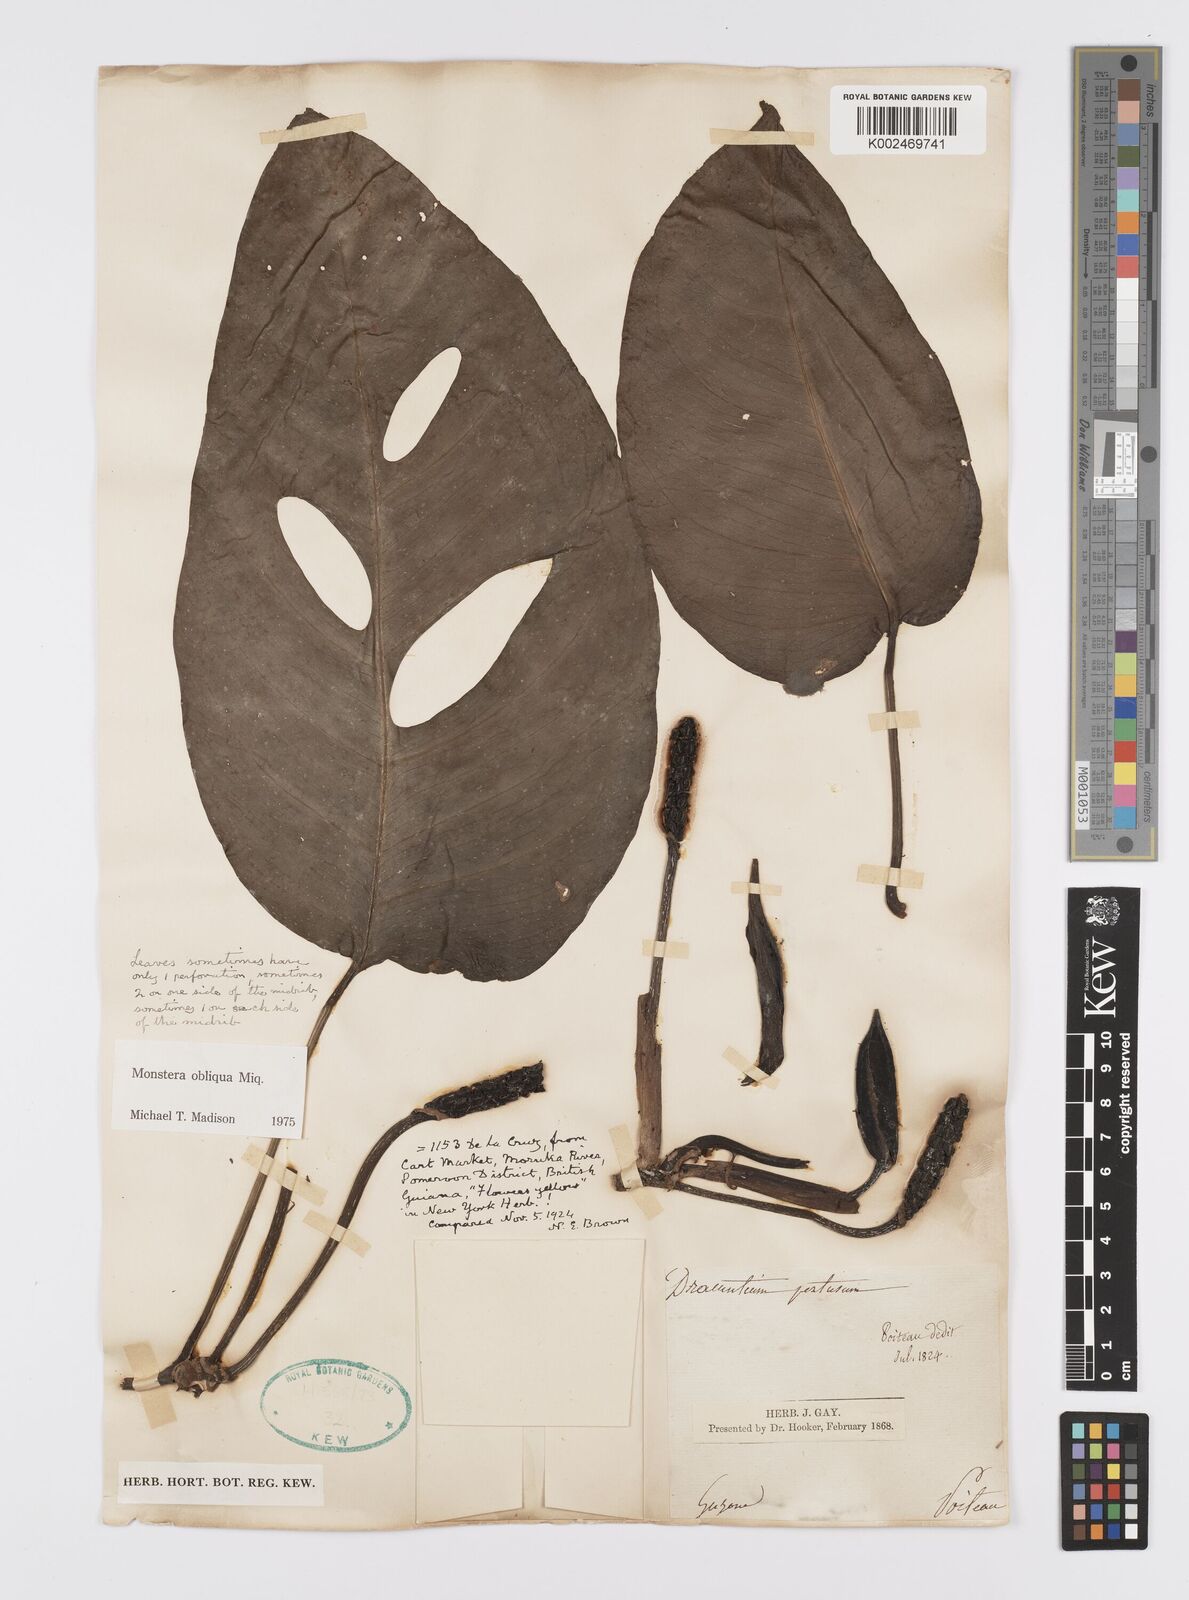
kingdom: Plantae
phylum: Tracheophyta
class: Liliopsida
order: Alismatales
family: Araceae
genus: Monstera
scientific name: Monstera obliqua
